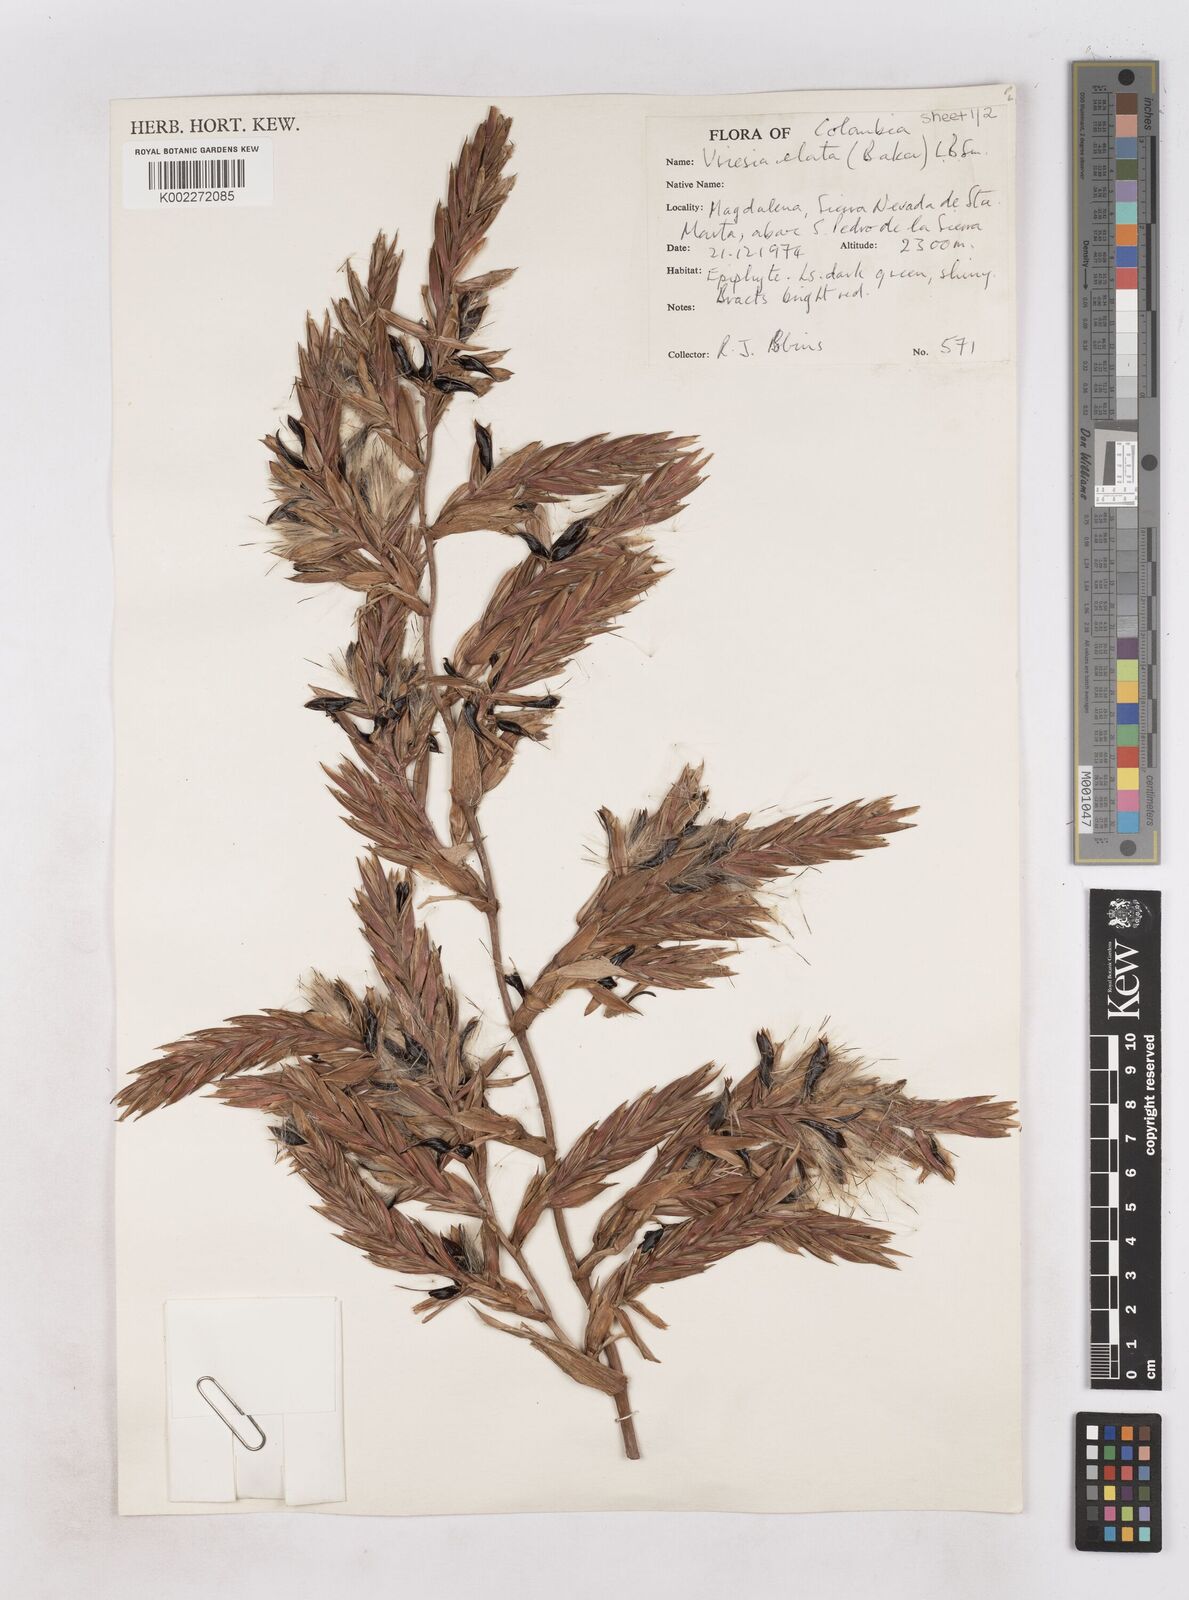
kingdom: Plantae
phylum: Tracheophyta
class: Liliopsida
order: Poales
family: Bromeliaceae
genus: Vriesea
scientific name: Vriesea elata
